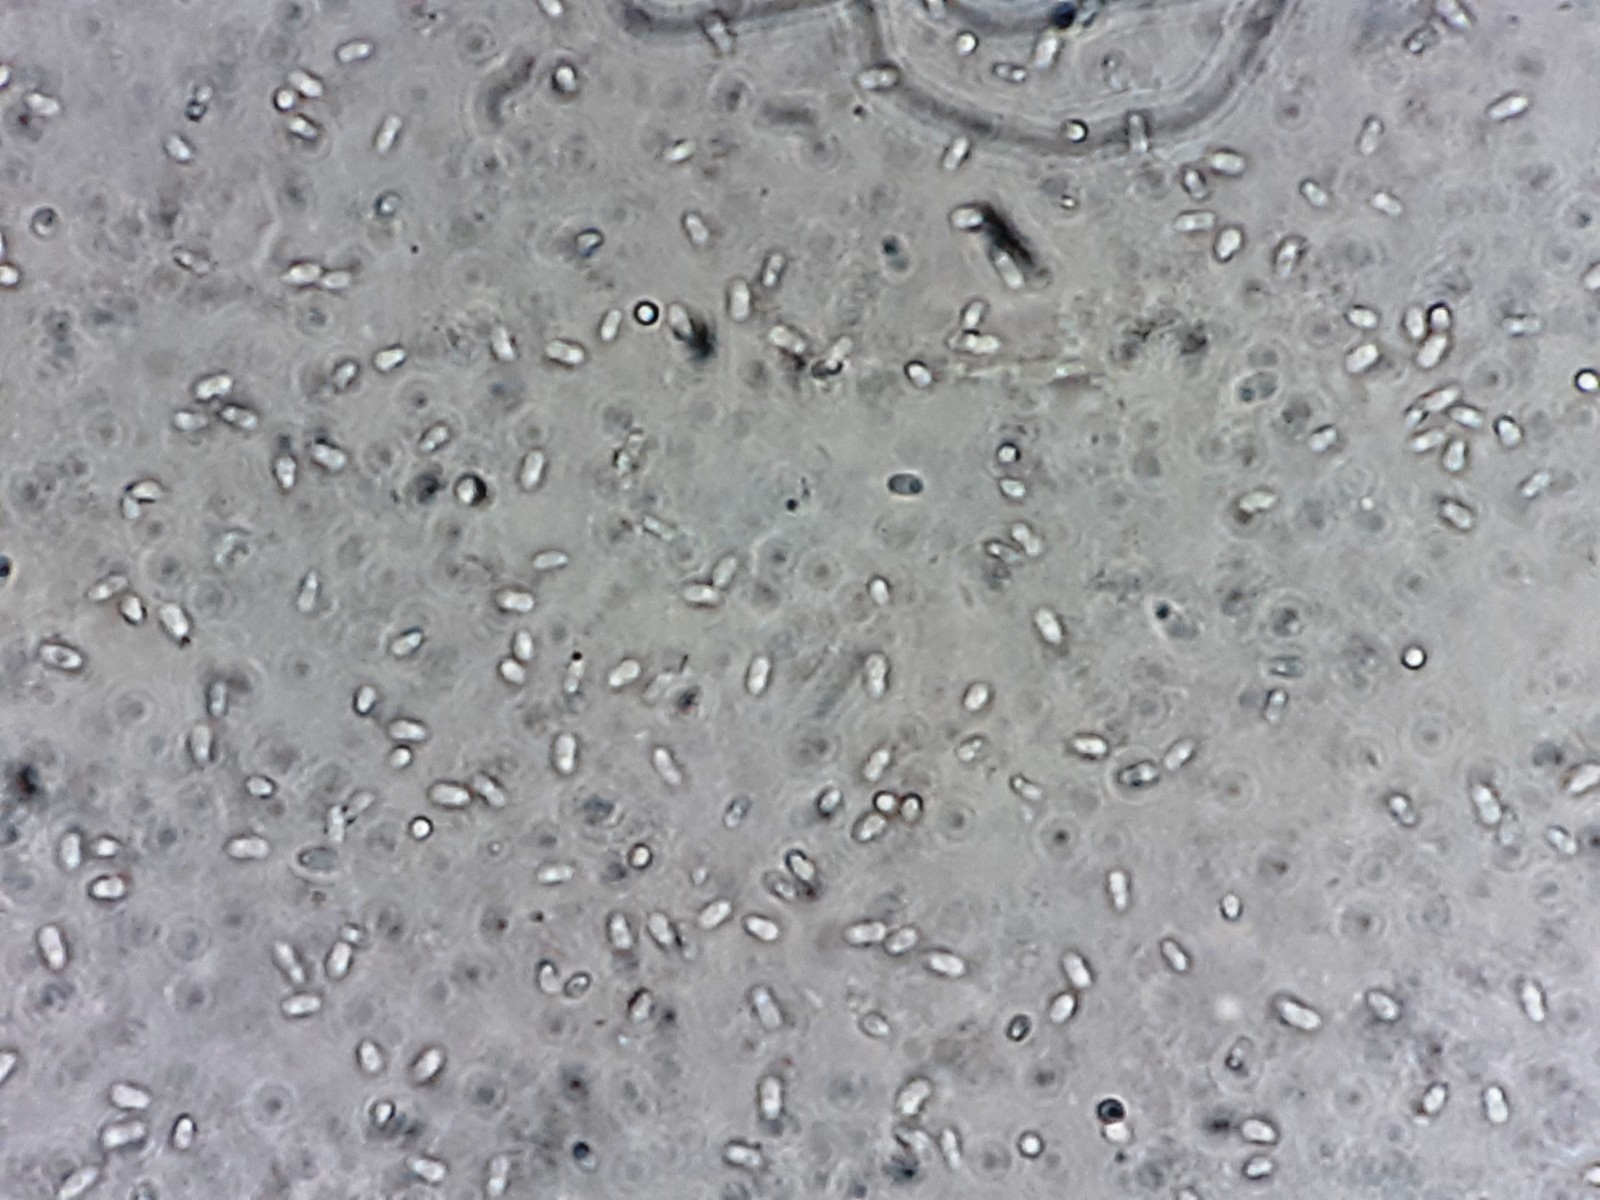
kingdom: Fungi
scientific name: Fungi
